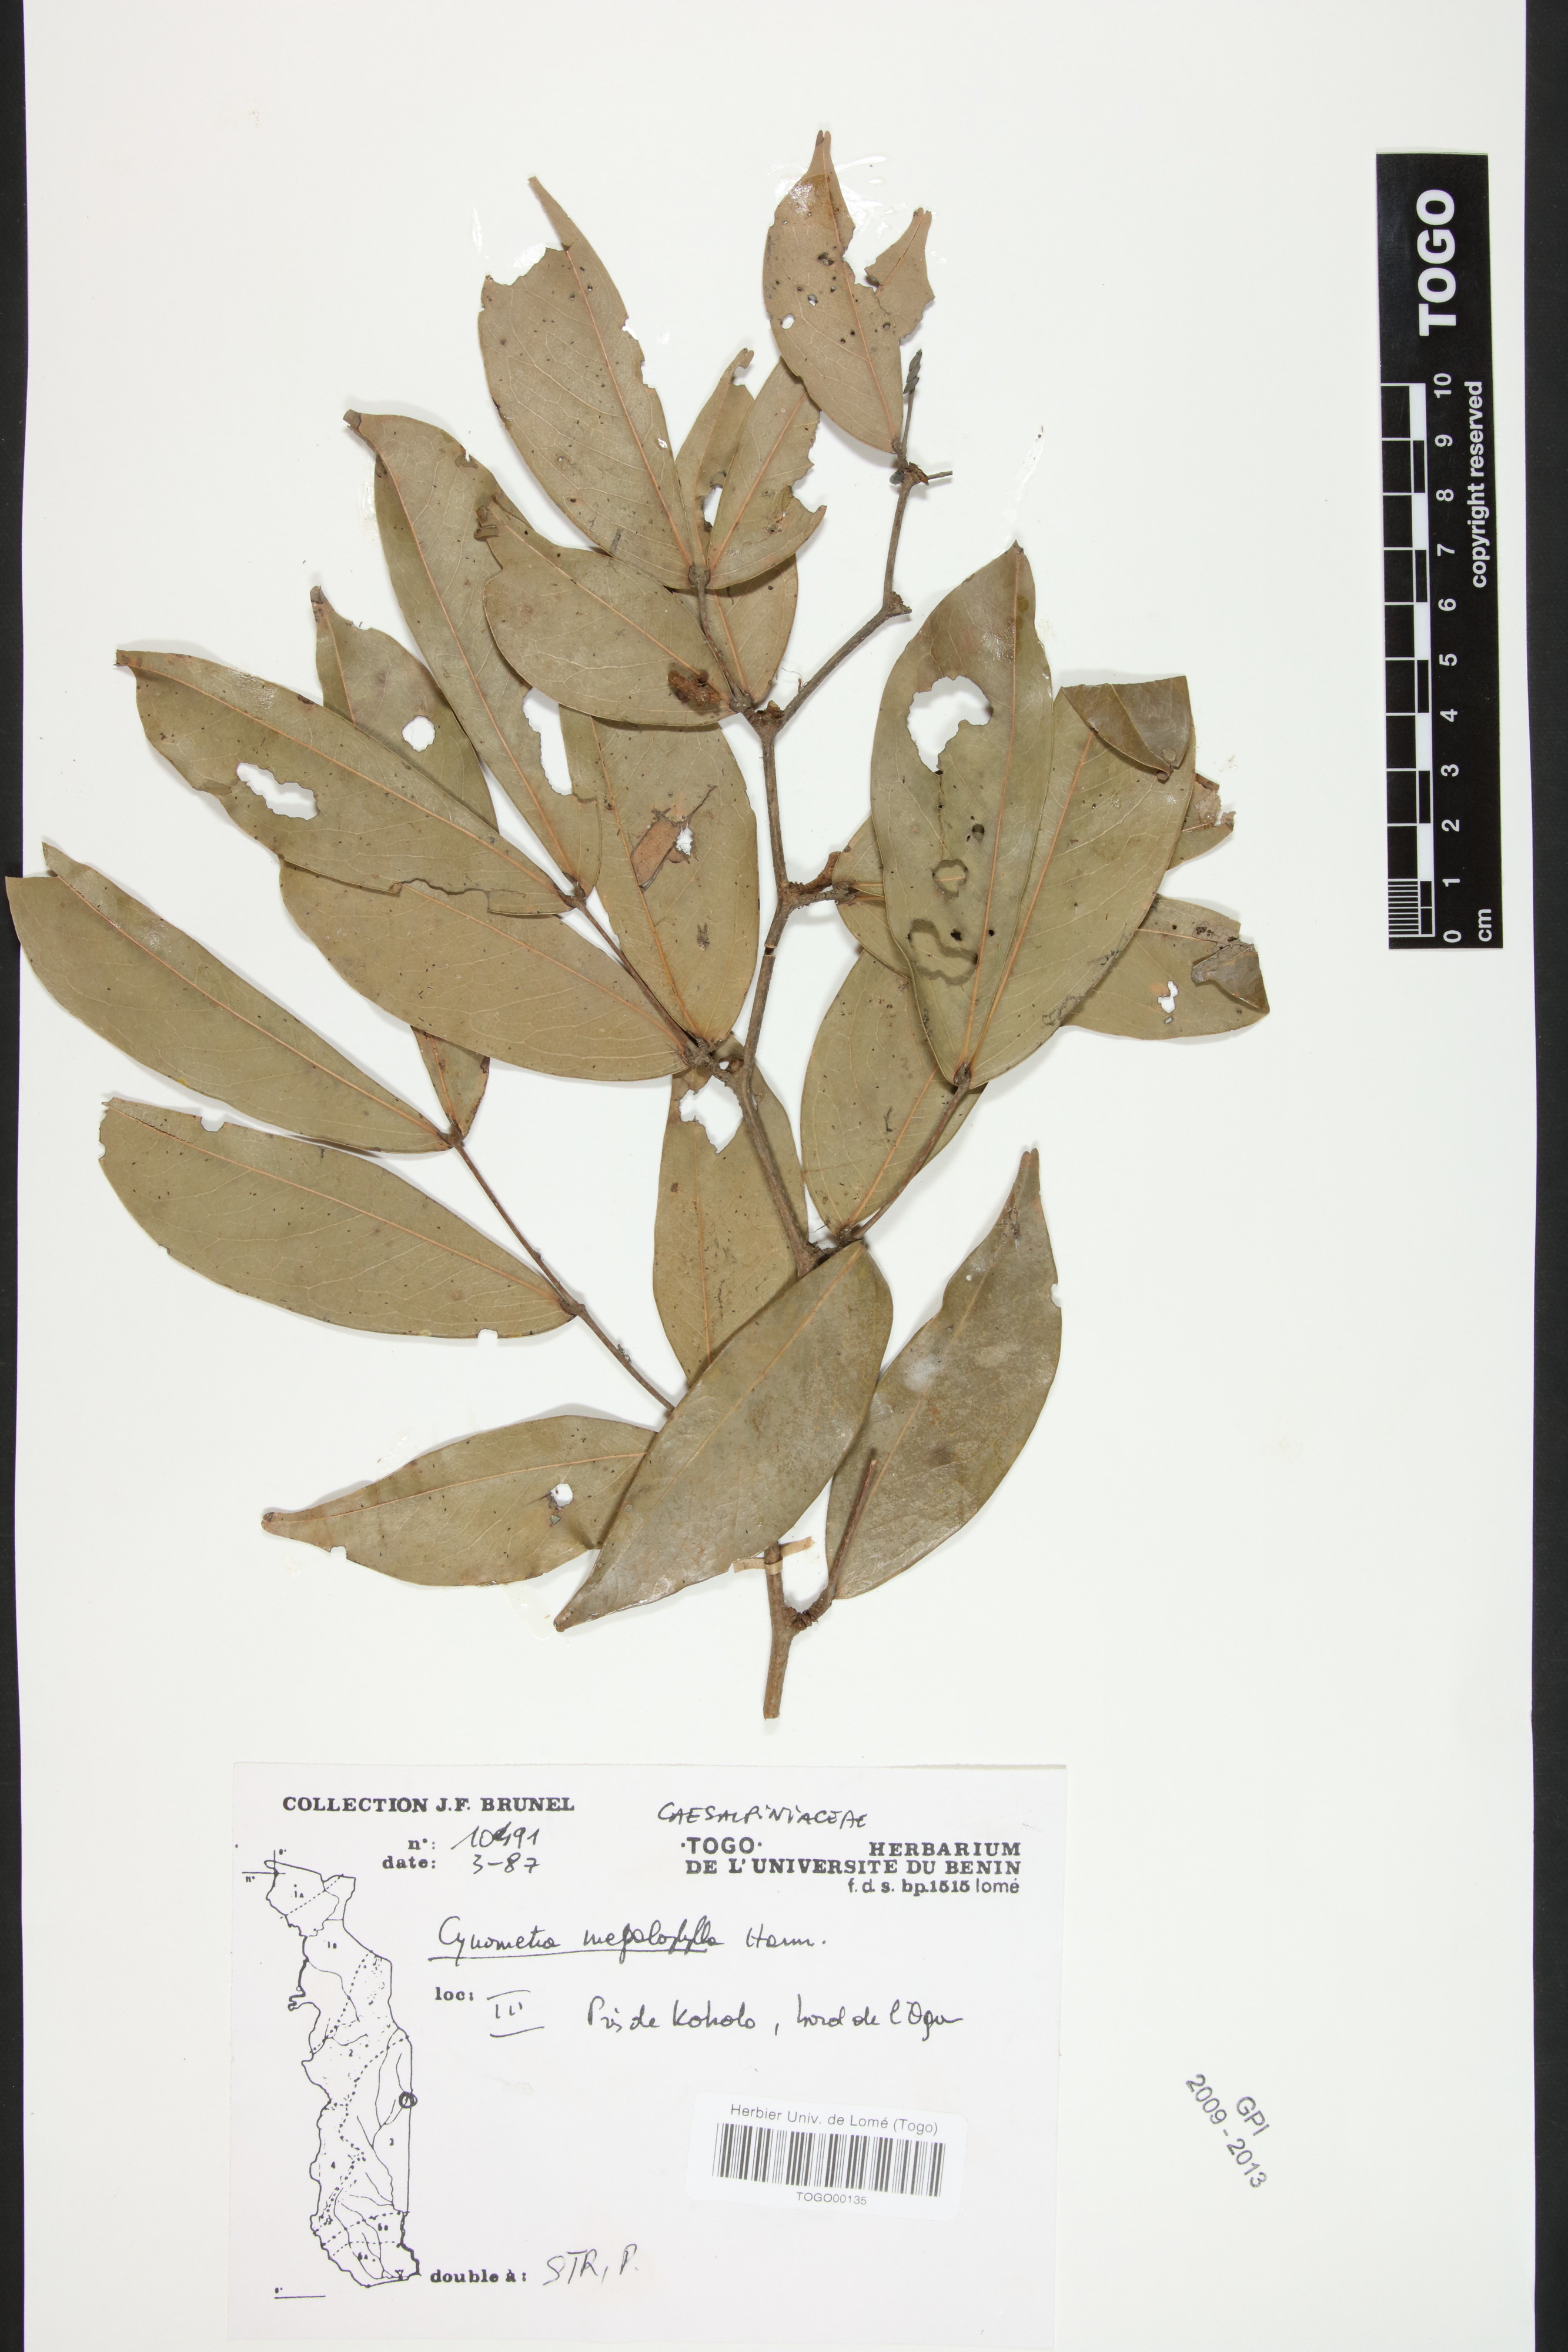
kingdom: Plantae
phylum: Tracheophyta
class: Magnoliopsida
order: Fabales
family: Fabaceae
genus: Cynometra
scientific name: Cynometra megalophylla
